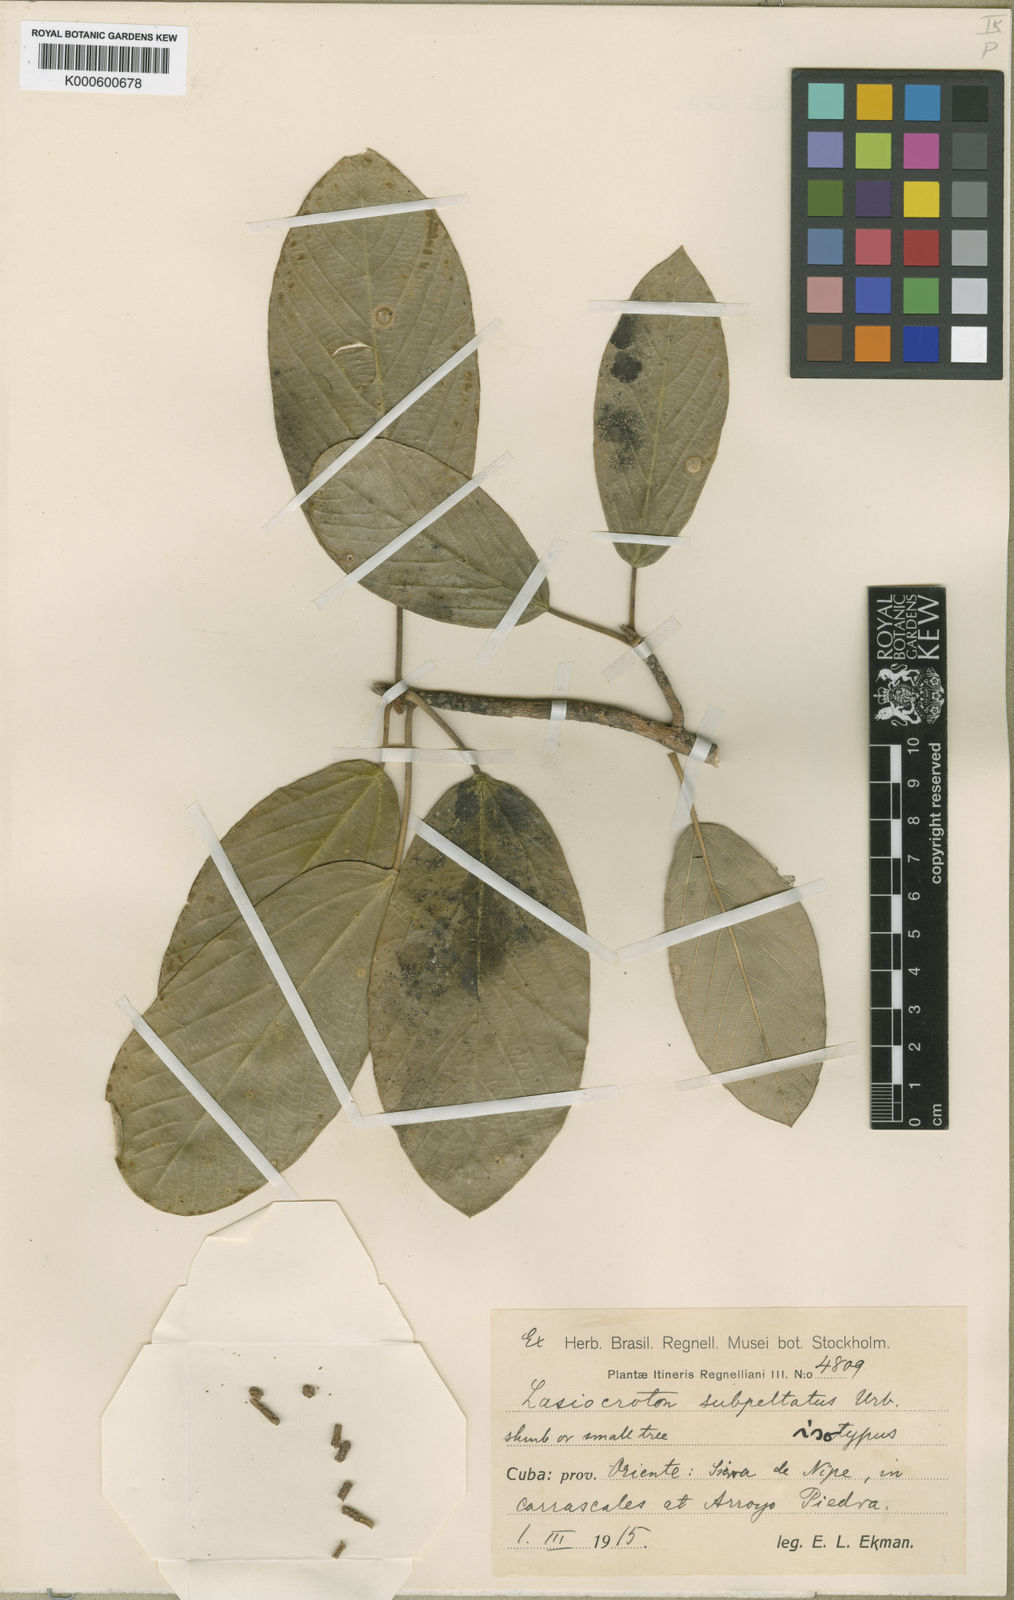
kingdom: Plantae
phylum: Tracheophyta
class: Magnoliopsida
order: Malpighiales
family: Euphorbiaceae
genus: Leucocroton
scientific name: Leucocroton subpeltatus
